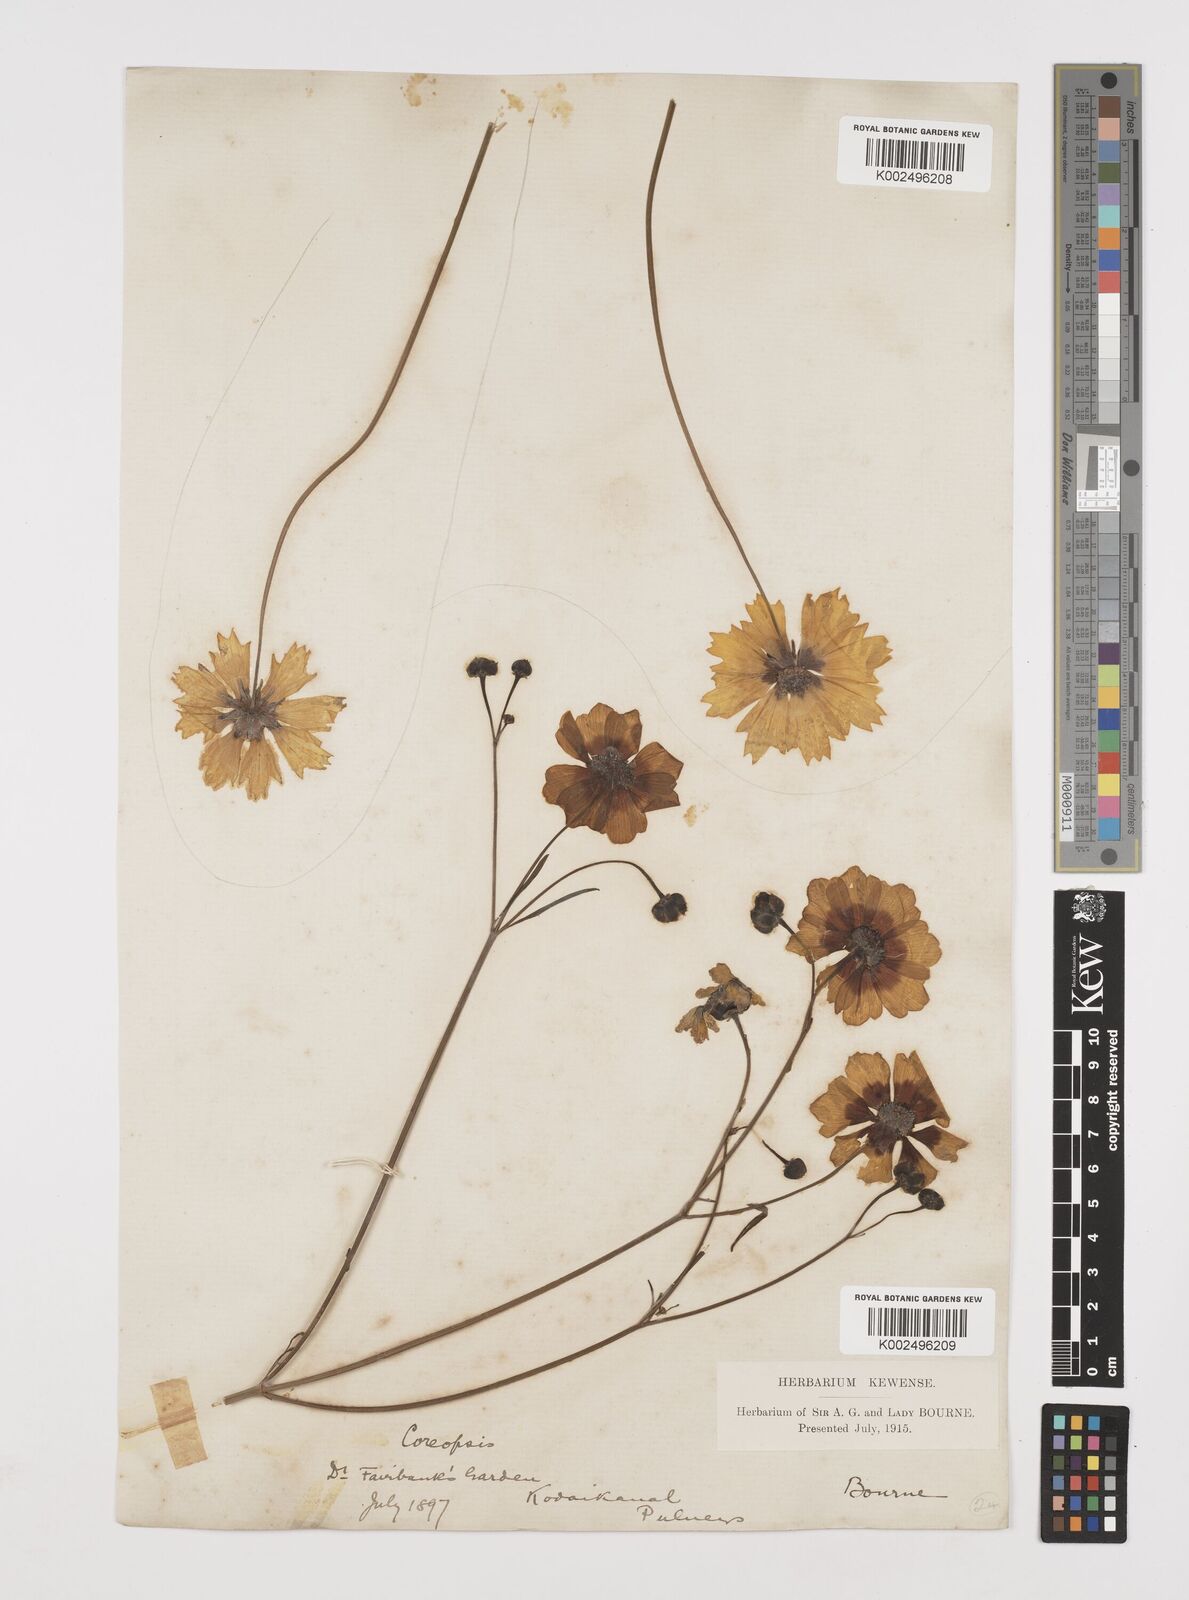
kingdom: Plantae
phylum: Tracheophyta
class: Magnoliopsida
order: Asterales
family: Asteraceae
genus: Coreopsis
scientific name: Coreopsis tinctoria
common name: Garden tickseed
